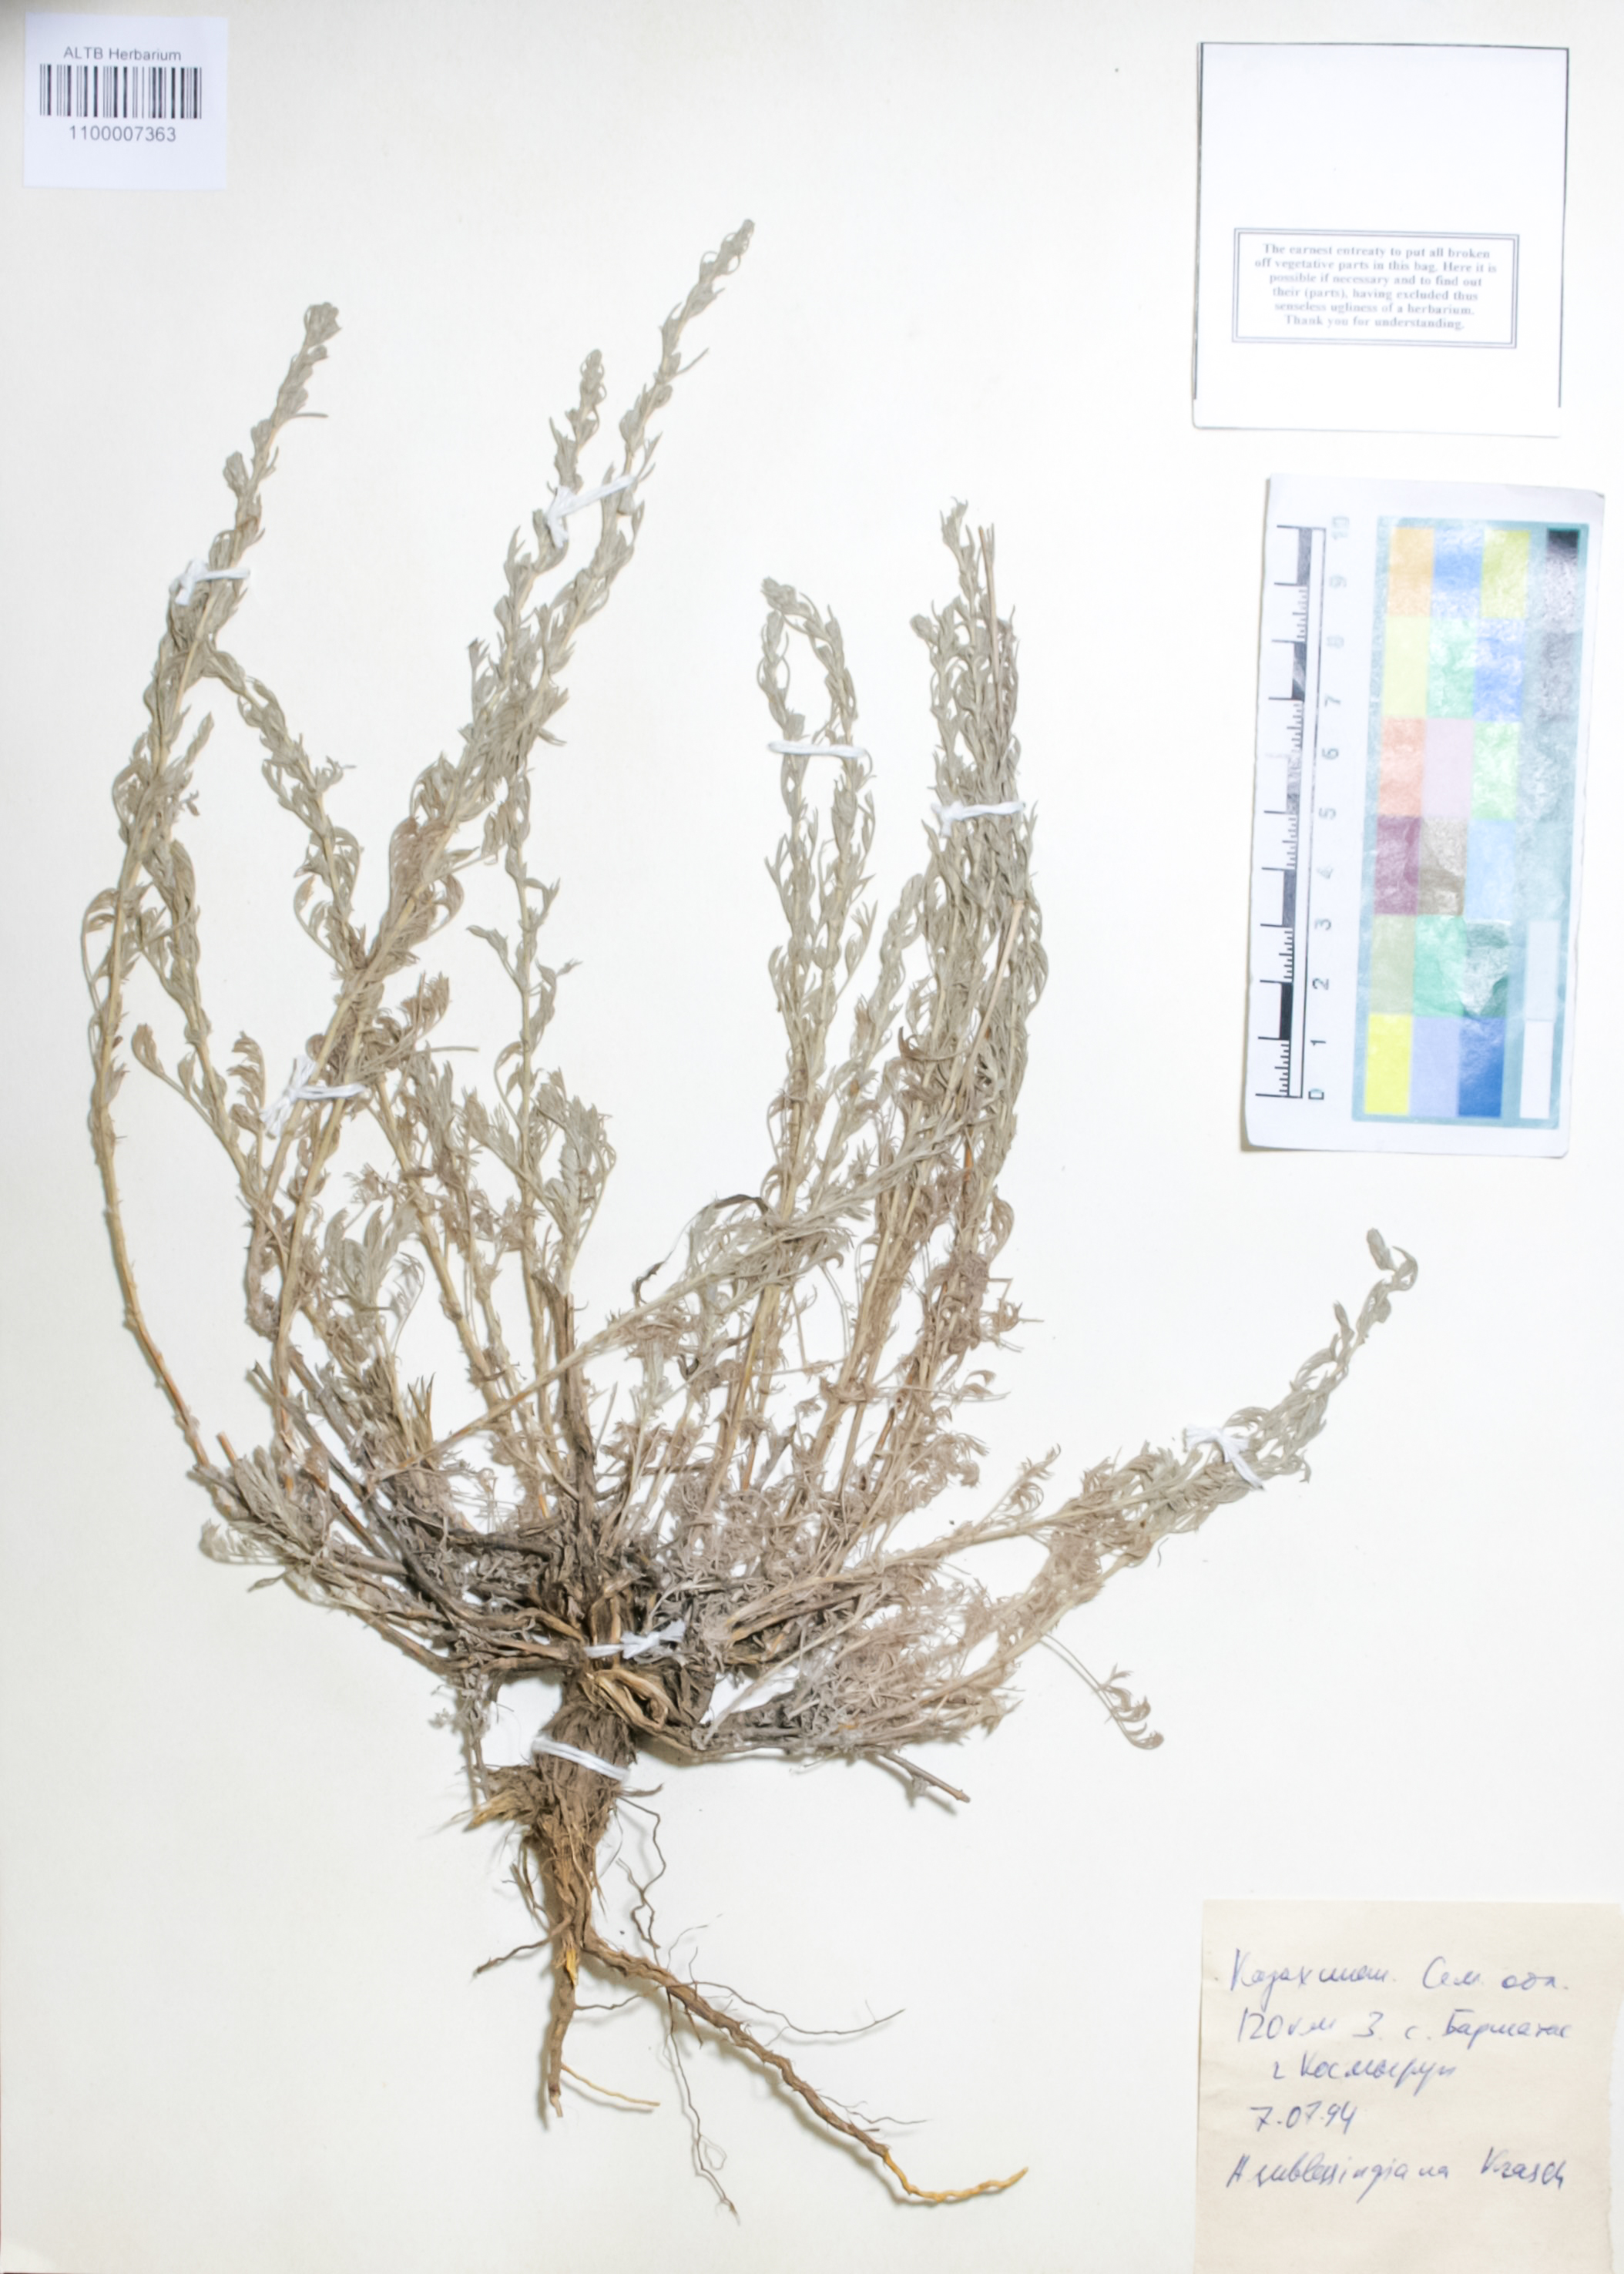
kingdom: Plantae
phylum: Tracheophyta
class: Magnoliopsida
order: Asterales
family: Asteraceae
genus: Artemisia
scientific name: Artemisia sublessingiana
